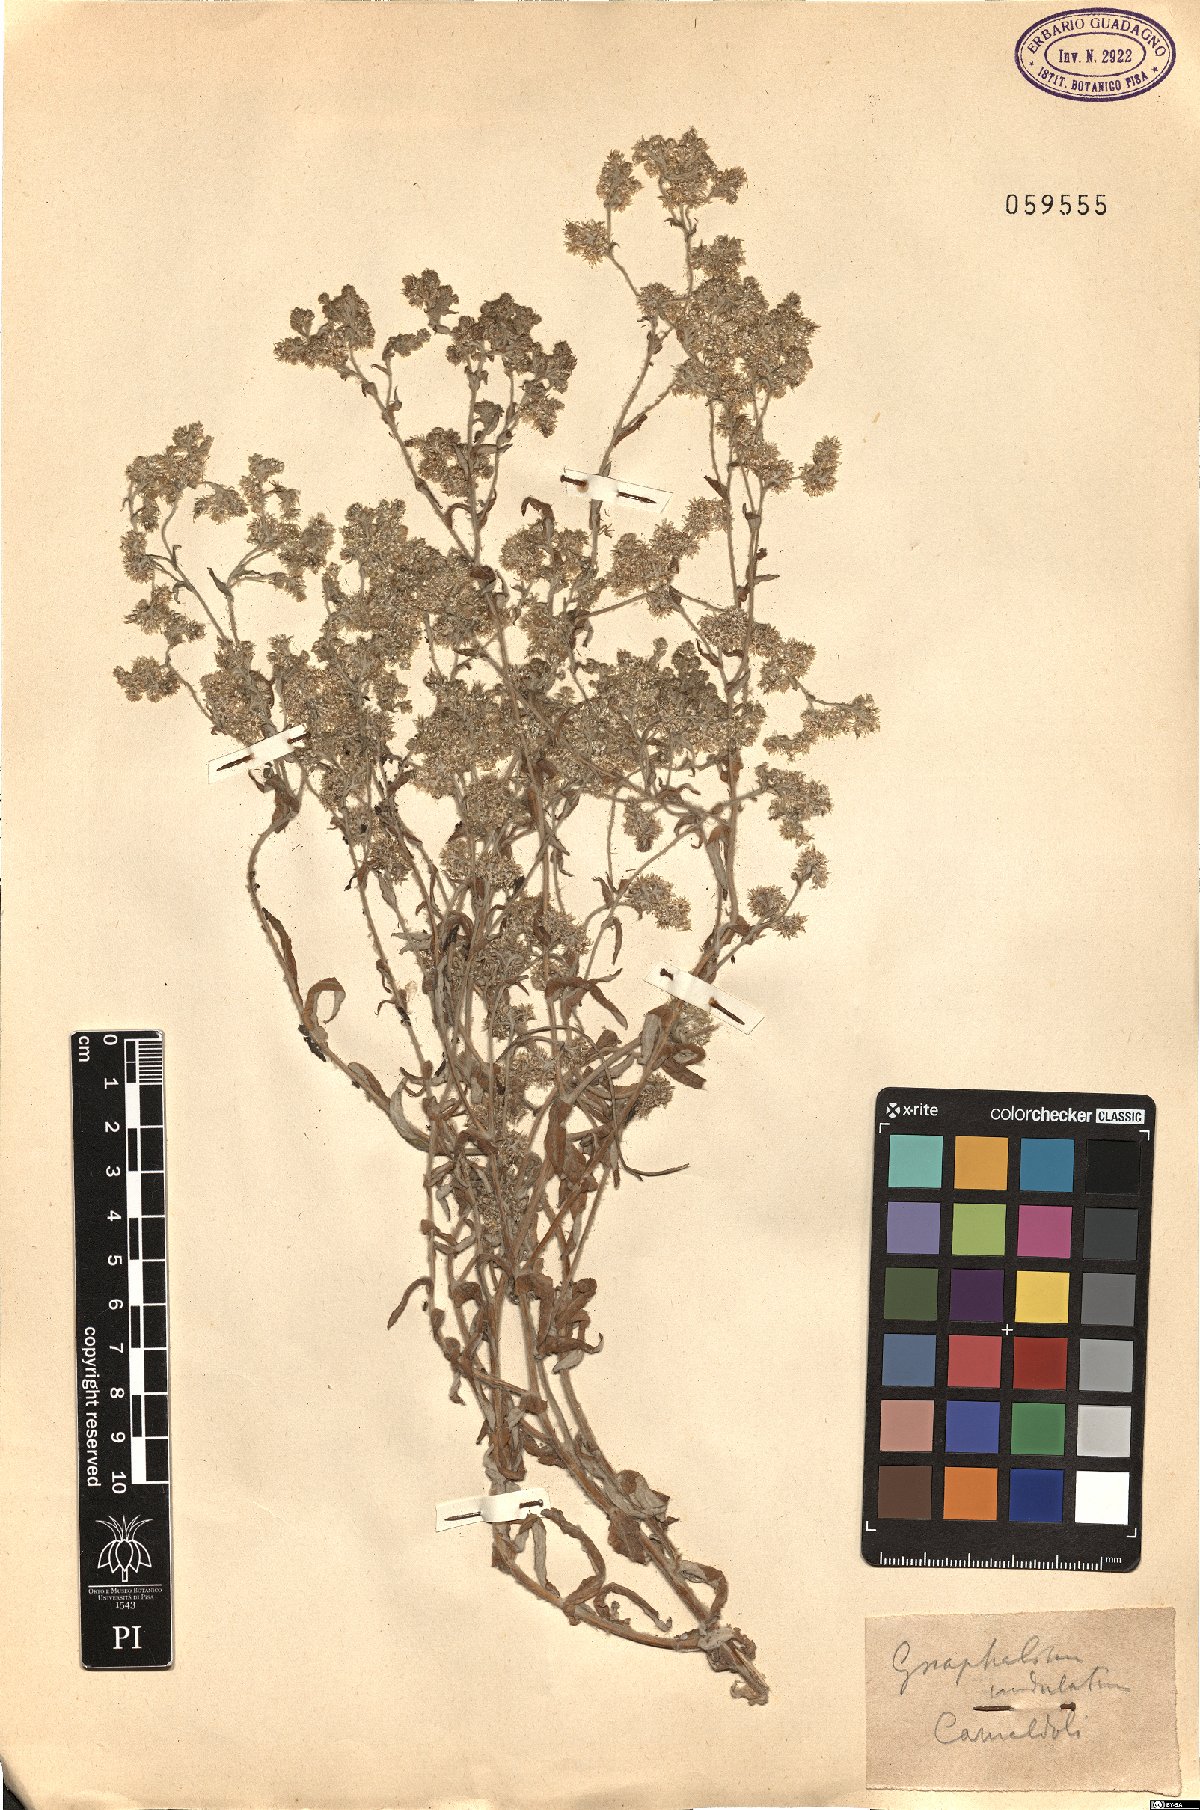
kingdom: Plantae
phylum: Tracheophyta
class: Magnoliopsida
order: Asterales
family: Asteraceae
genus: Pseudognaphalium
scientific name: Pseudognaphalium undulatum
